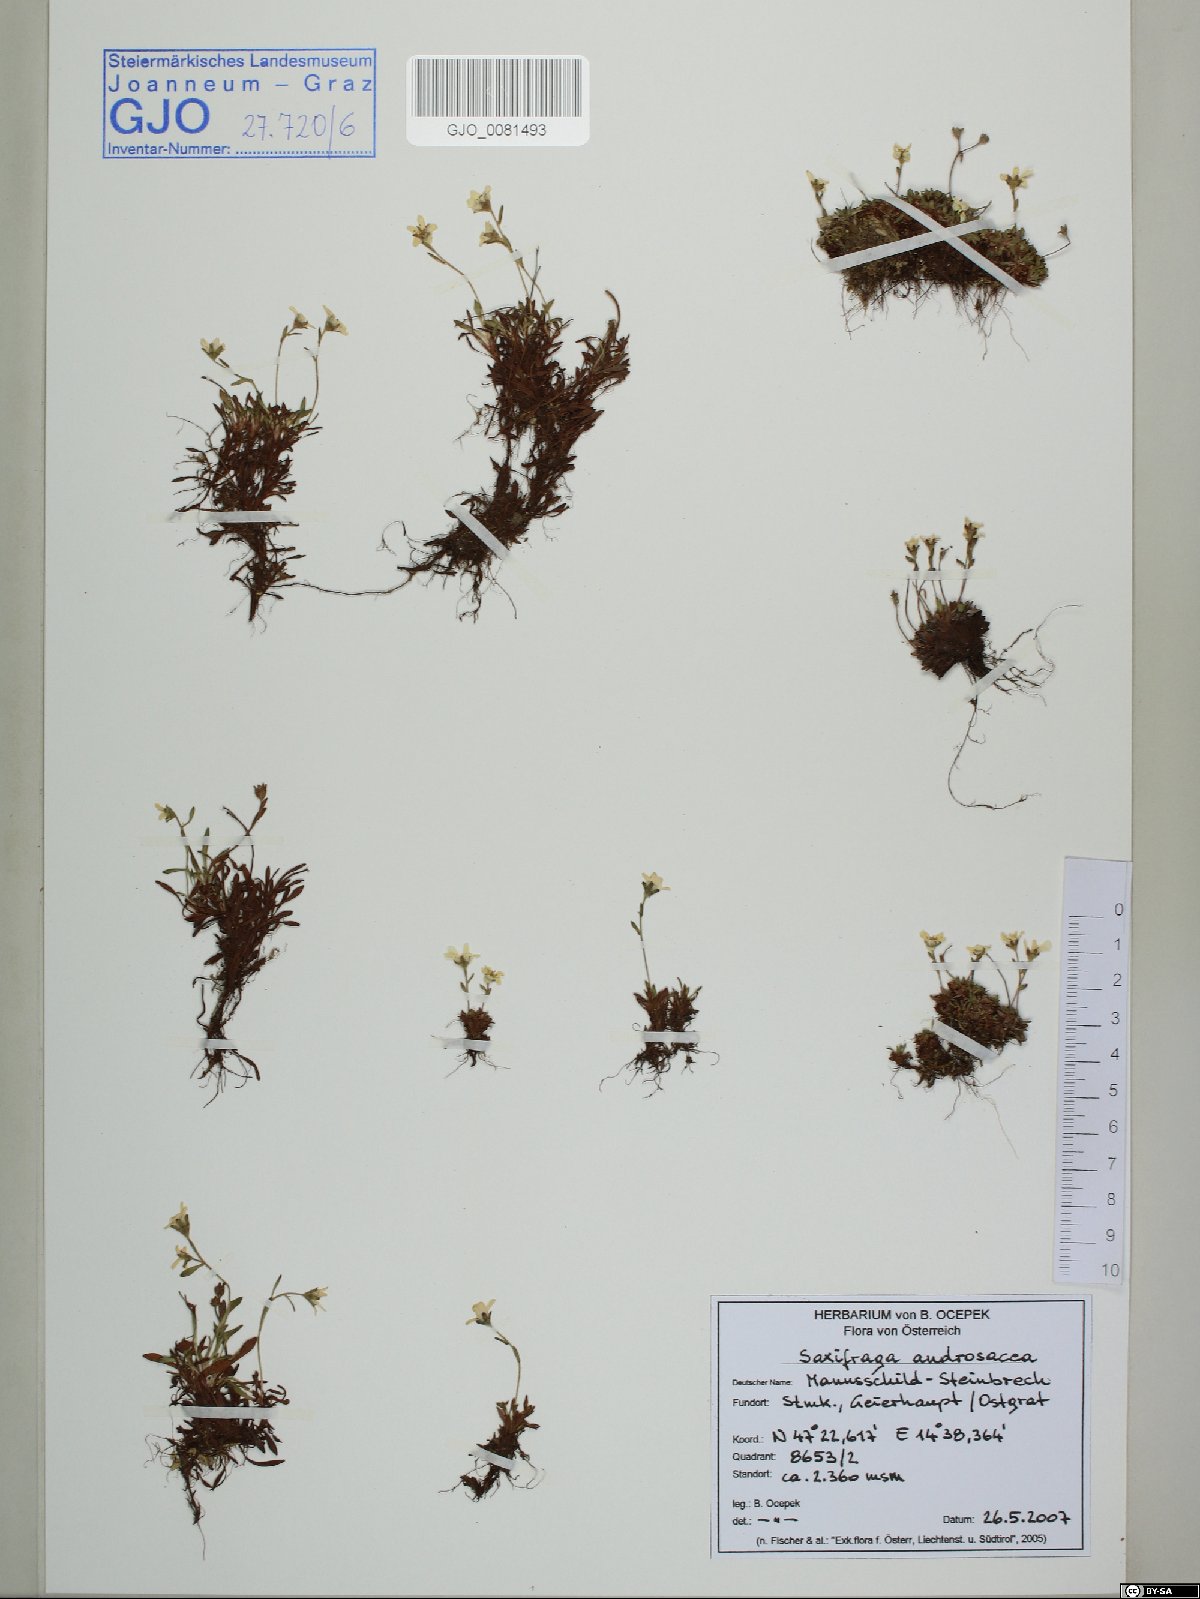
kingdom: Plantae
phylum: Tracheophyta
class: Magnoliopsida
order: Saxifragales
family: Saxifragaceae
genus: Saxifraga
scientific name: Saxifraga androsacea
